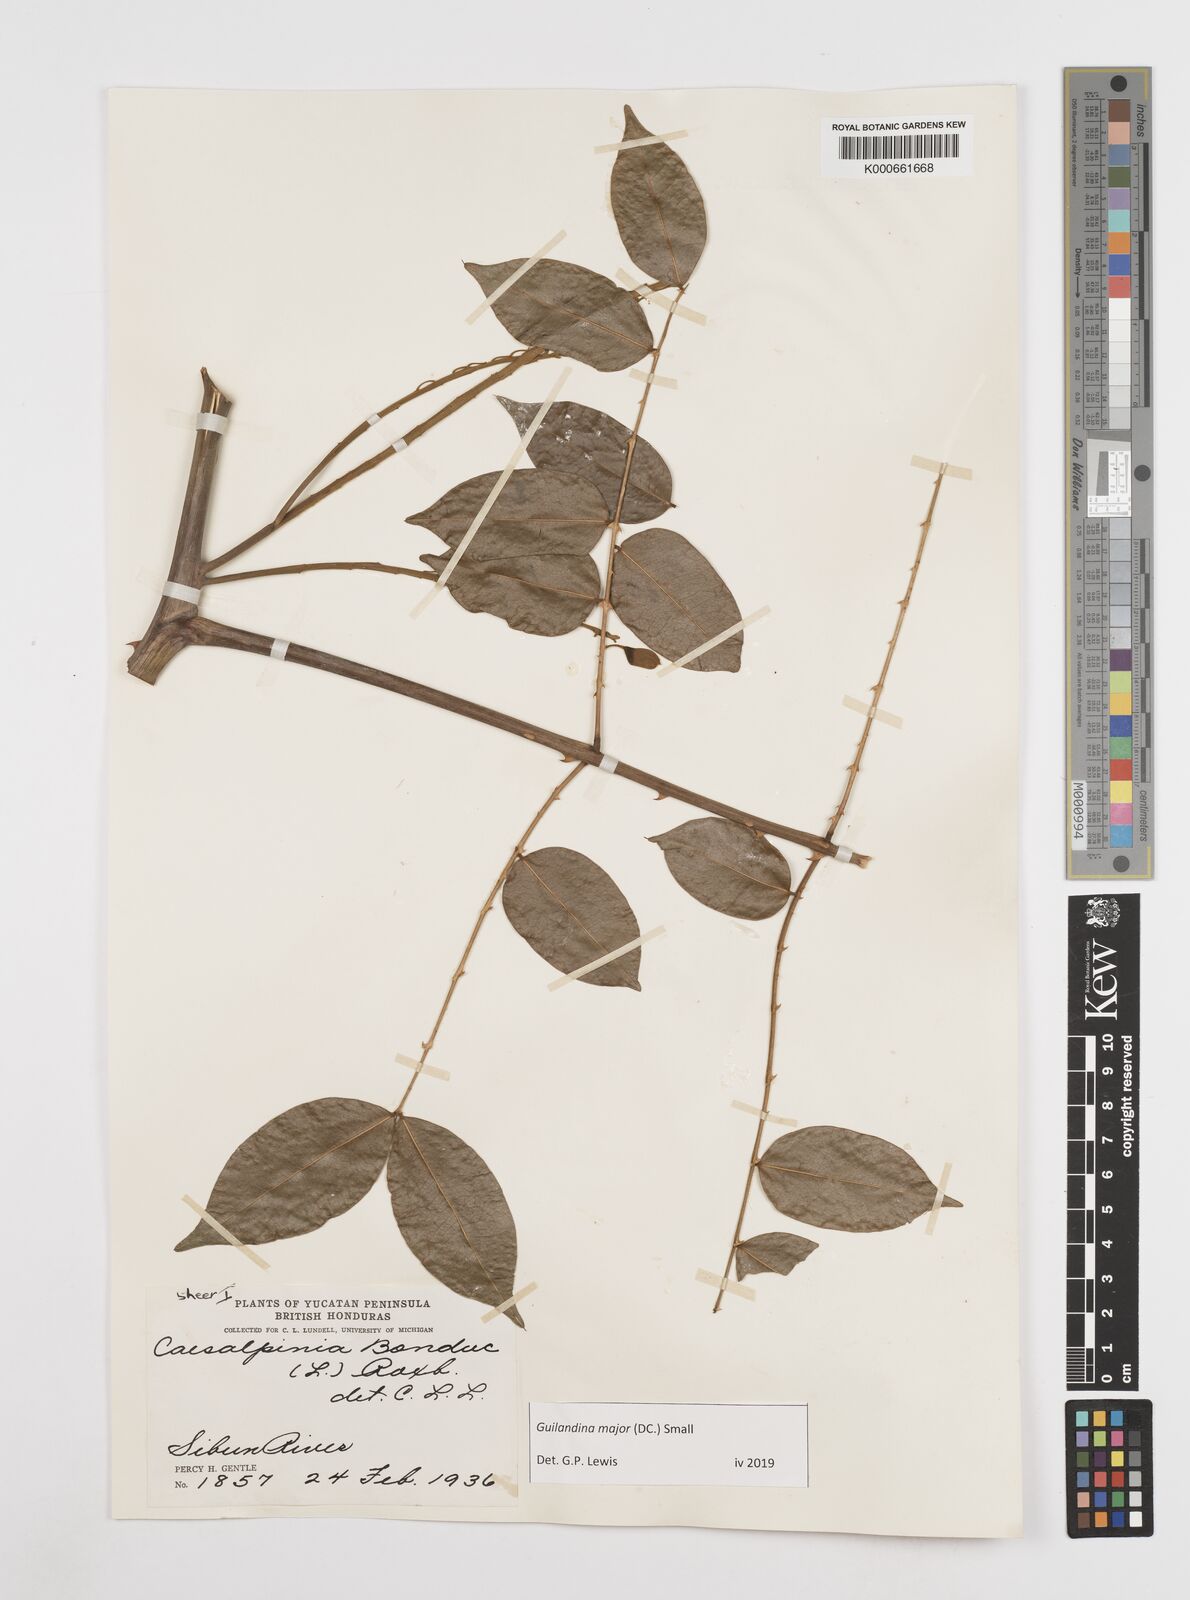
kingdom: Plantae
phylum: Tracheophyta
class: Magnoliopsida
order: Fabales
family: Fabaceae
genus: Guilandina
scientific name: Guilandina major
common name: Hawai'i pearls
